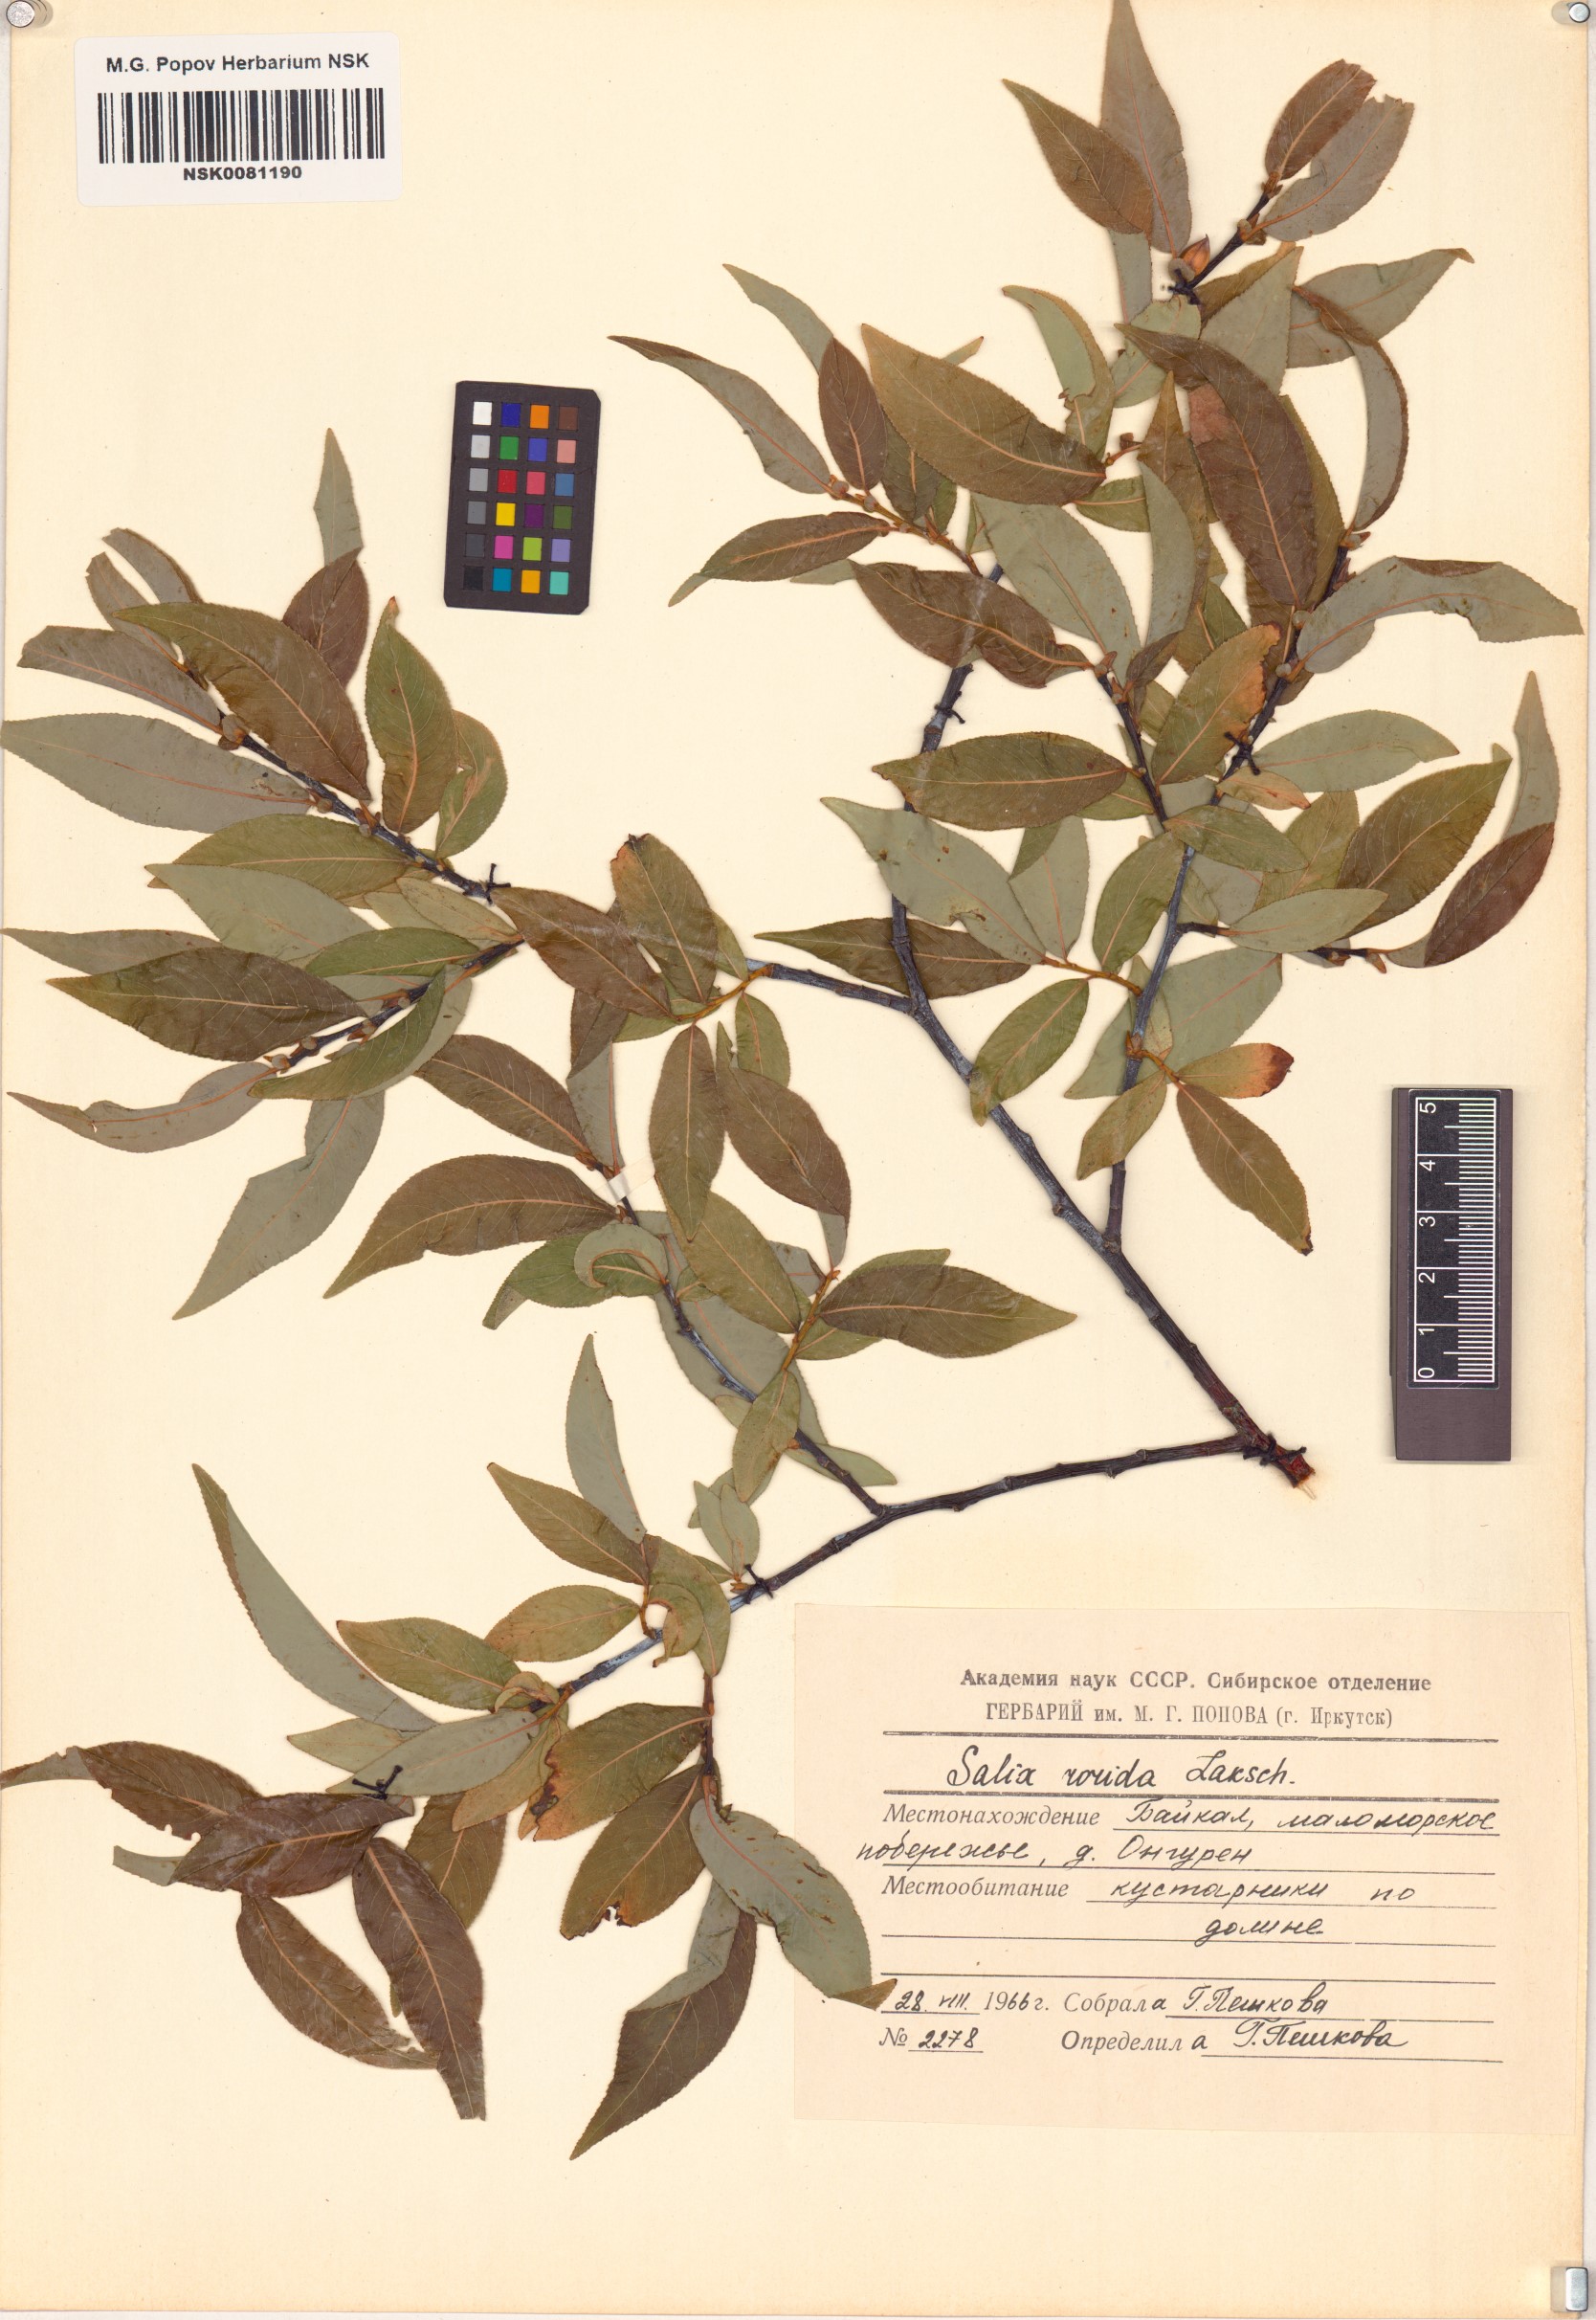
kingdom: Plantae
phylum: Tracheophyta
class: Magnoliopsida
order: Malpighiales
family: Salicaceae
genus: Salix
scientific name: Salix rorida
